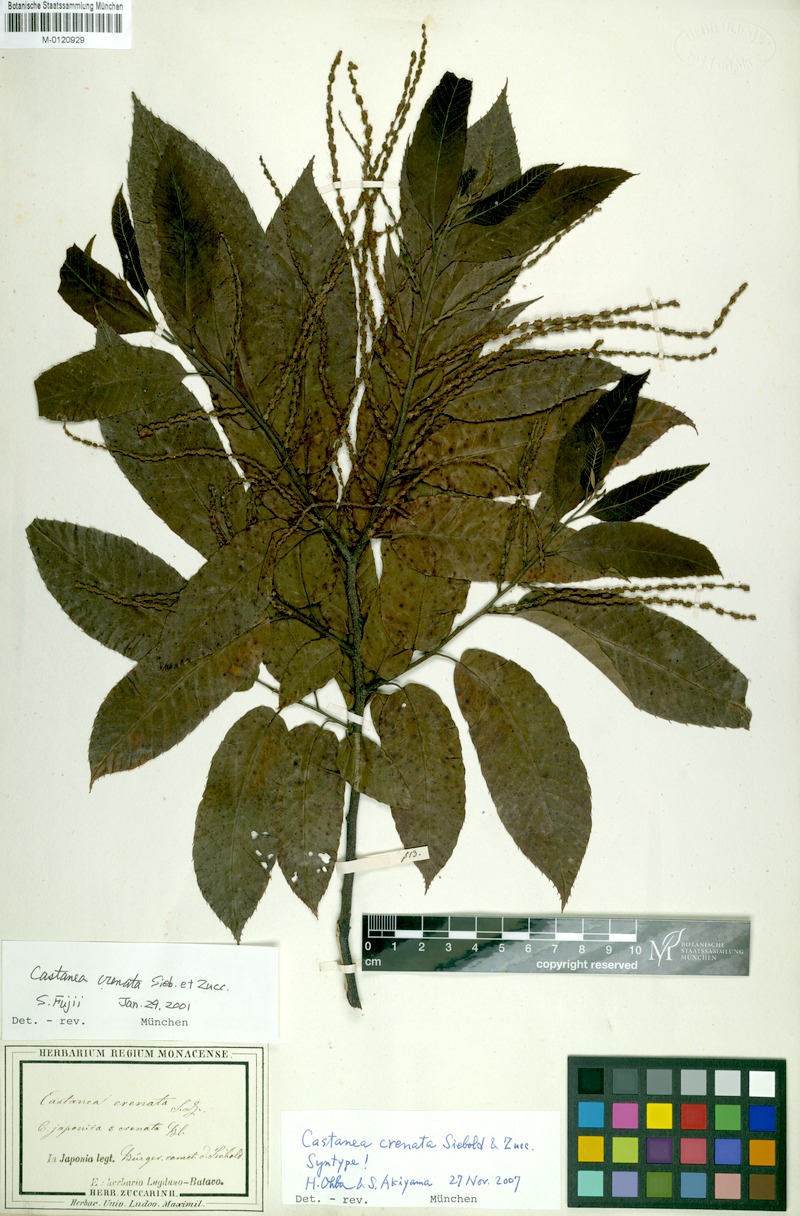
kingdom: Plantae
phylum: Tracheophyta
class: Magnoliopsida
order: Fagales
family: Fagaceae
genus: Castanea
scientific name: Castanea crenata
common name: Japanese chestnut
